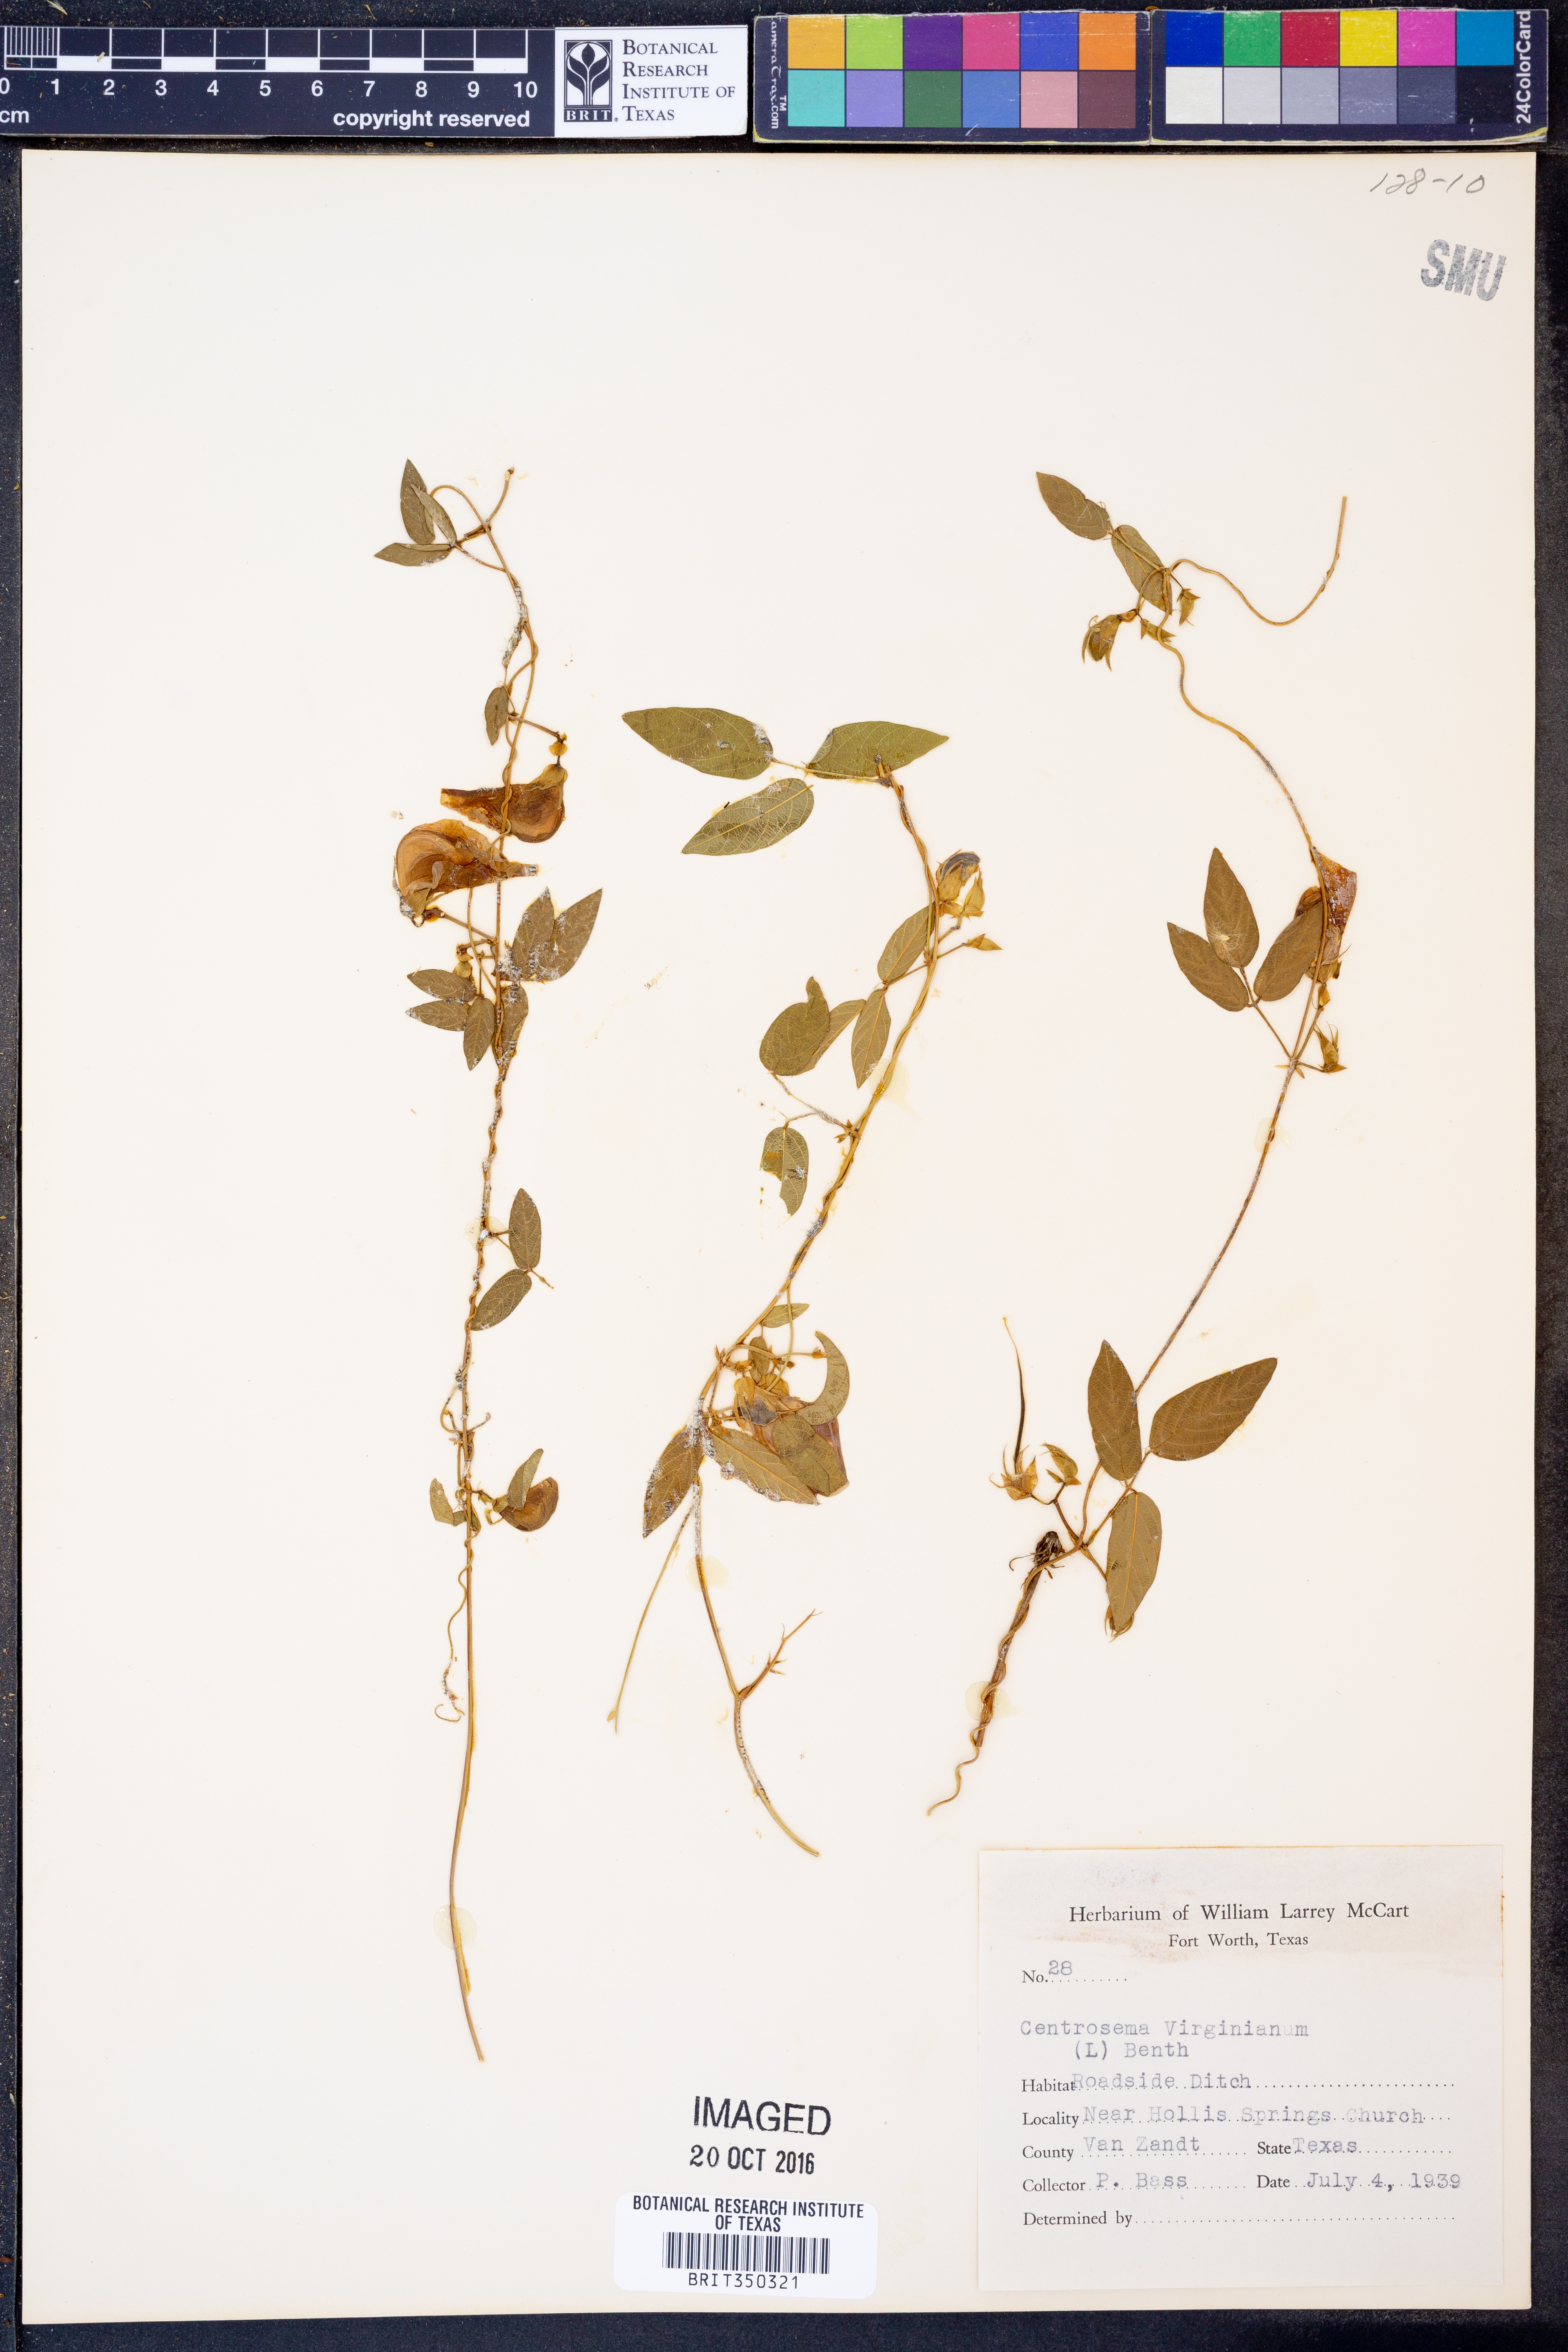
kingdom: Plantae
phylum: Tracheophyta
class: Magnoliopsida
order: Fabales
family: Fabaceae
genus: Centrosema
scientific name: Centrosema virginianum
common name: Butterfly-pea
